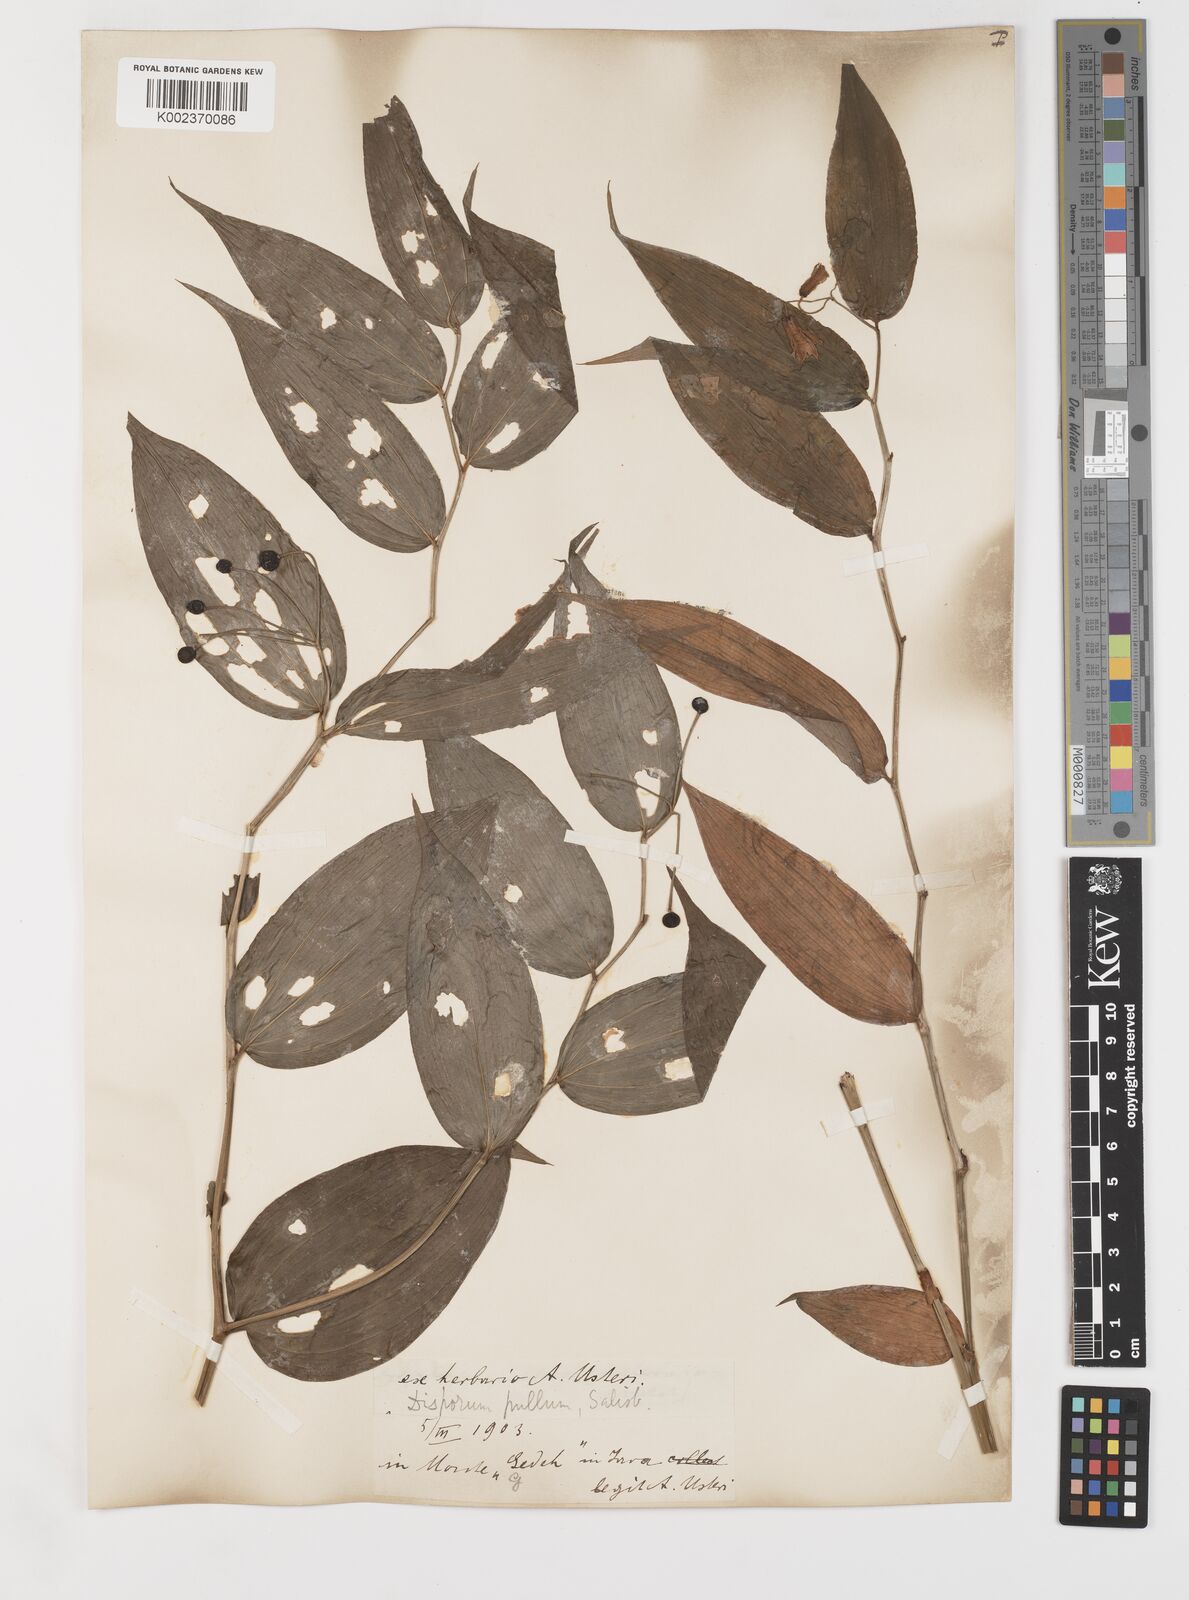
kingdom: Plantae
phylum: Tracheophyta
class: Liliopsida
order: Liliales
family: Colchicaceae
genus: Disporum
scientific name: Disporum cantoniense
